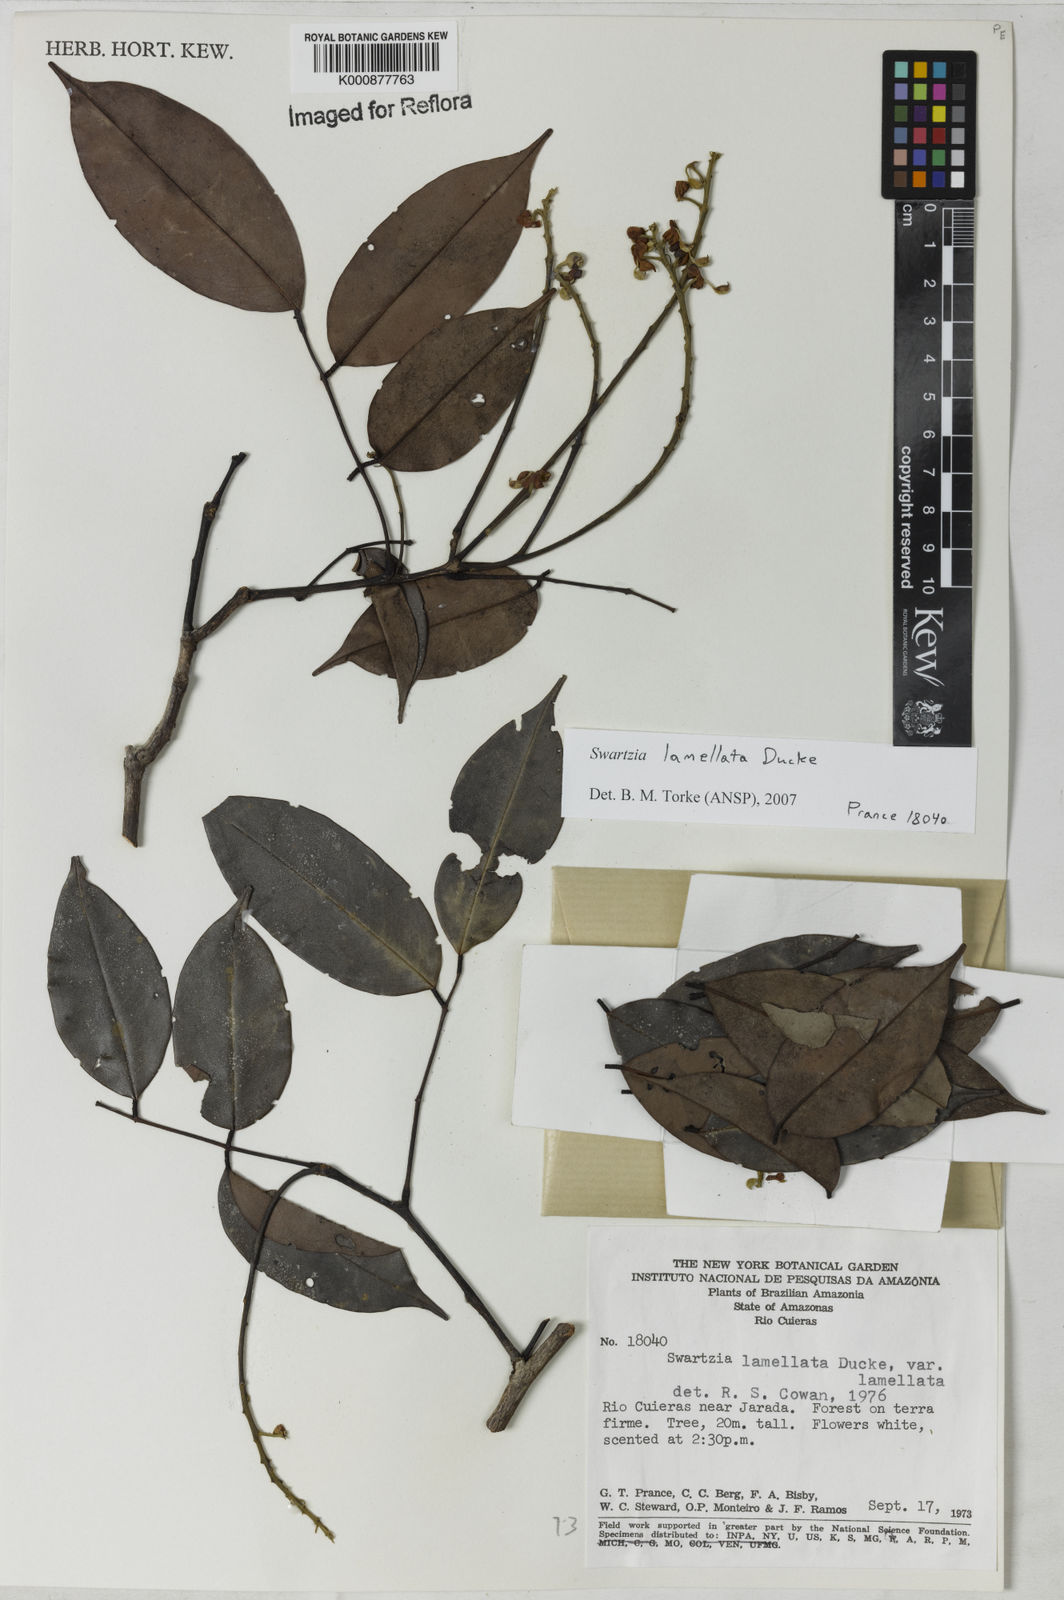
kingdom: Plantae
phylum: Tracheophyta
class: Magnoliopsida
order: Fabales
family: Fabaceae
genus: Swartzia
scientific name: Swartzia lamellata
